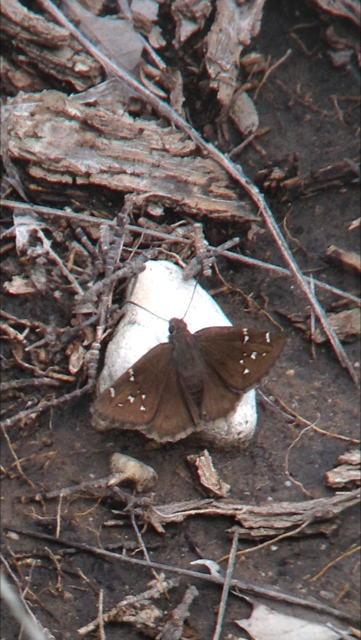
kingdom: Animalia
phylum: Arthropoda
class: Insecta
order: Lepidoptera
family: Hesperiidae
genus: Autochton
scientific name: Autochton
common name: Northern Cloudywing
